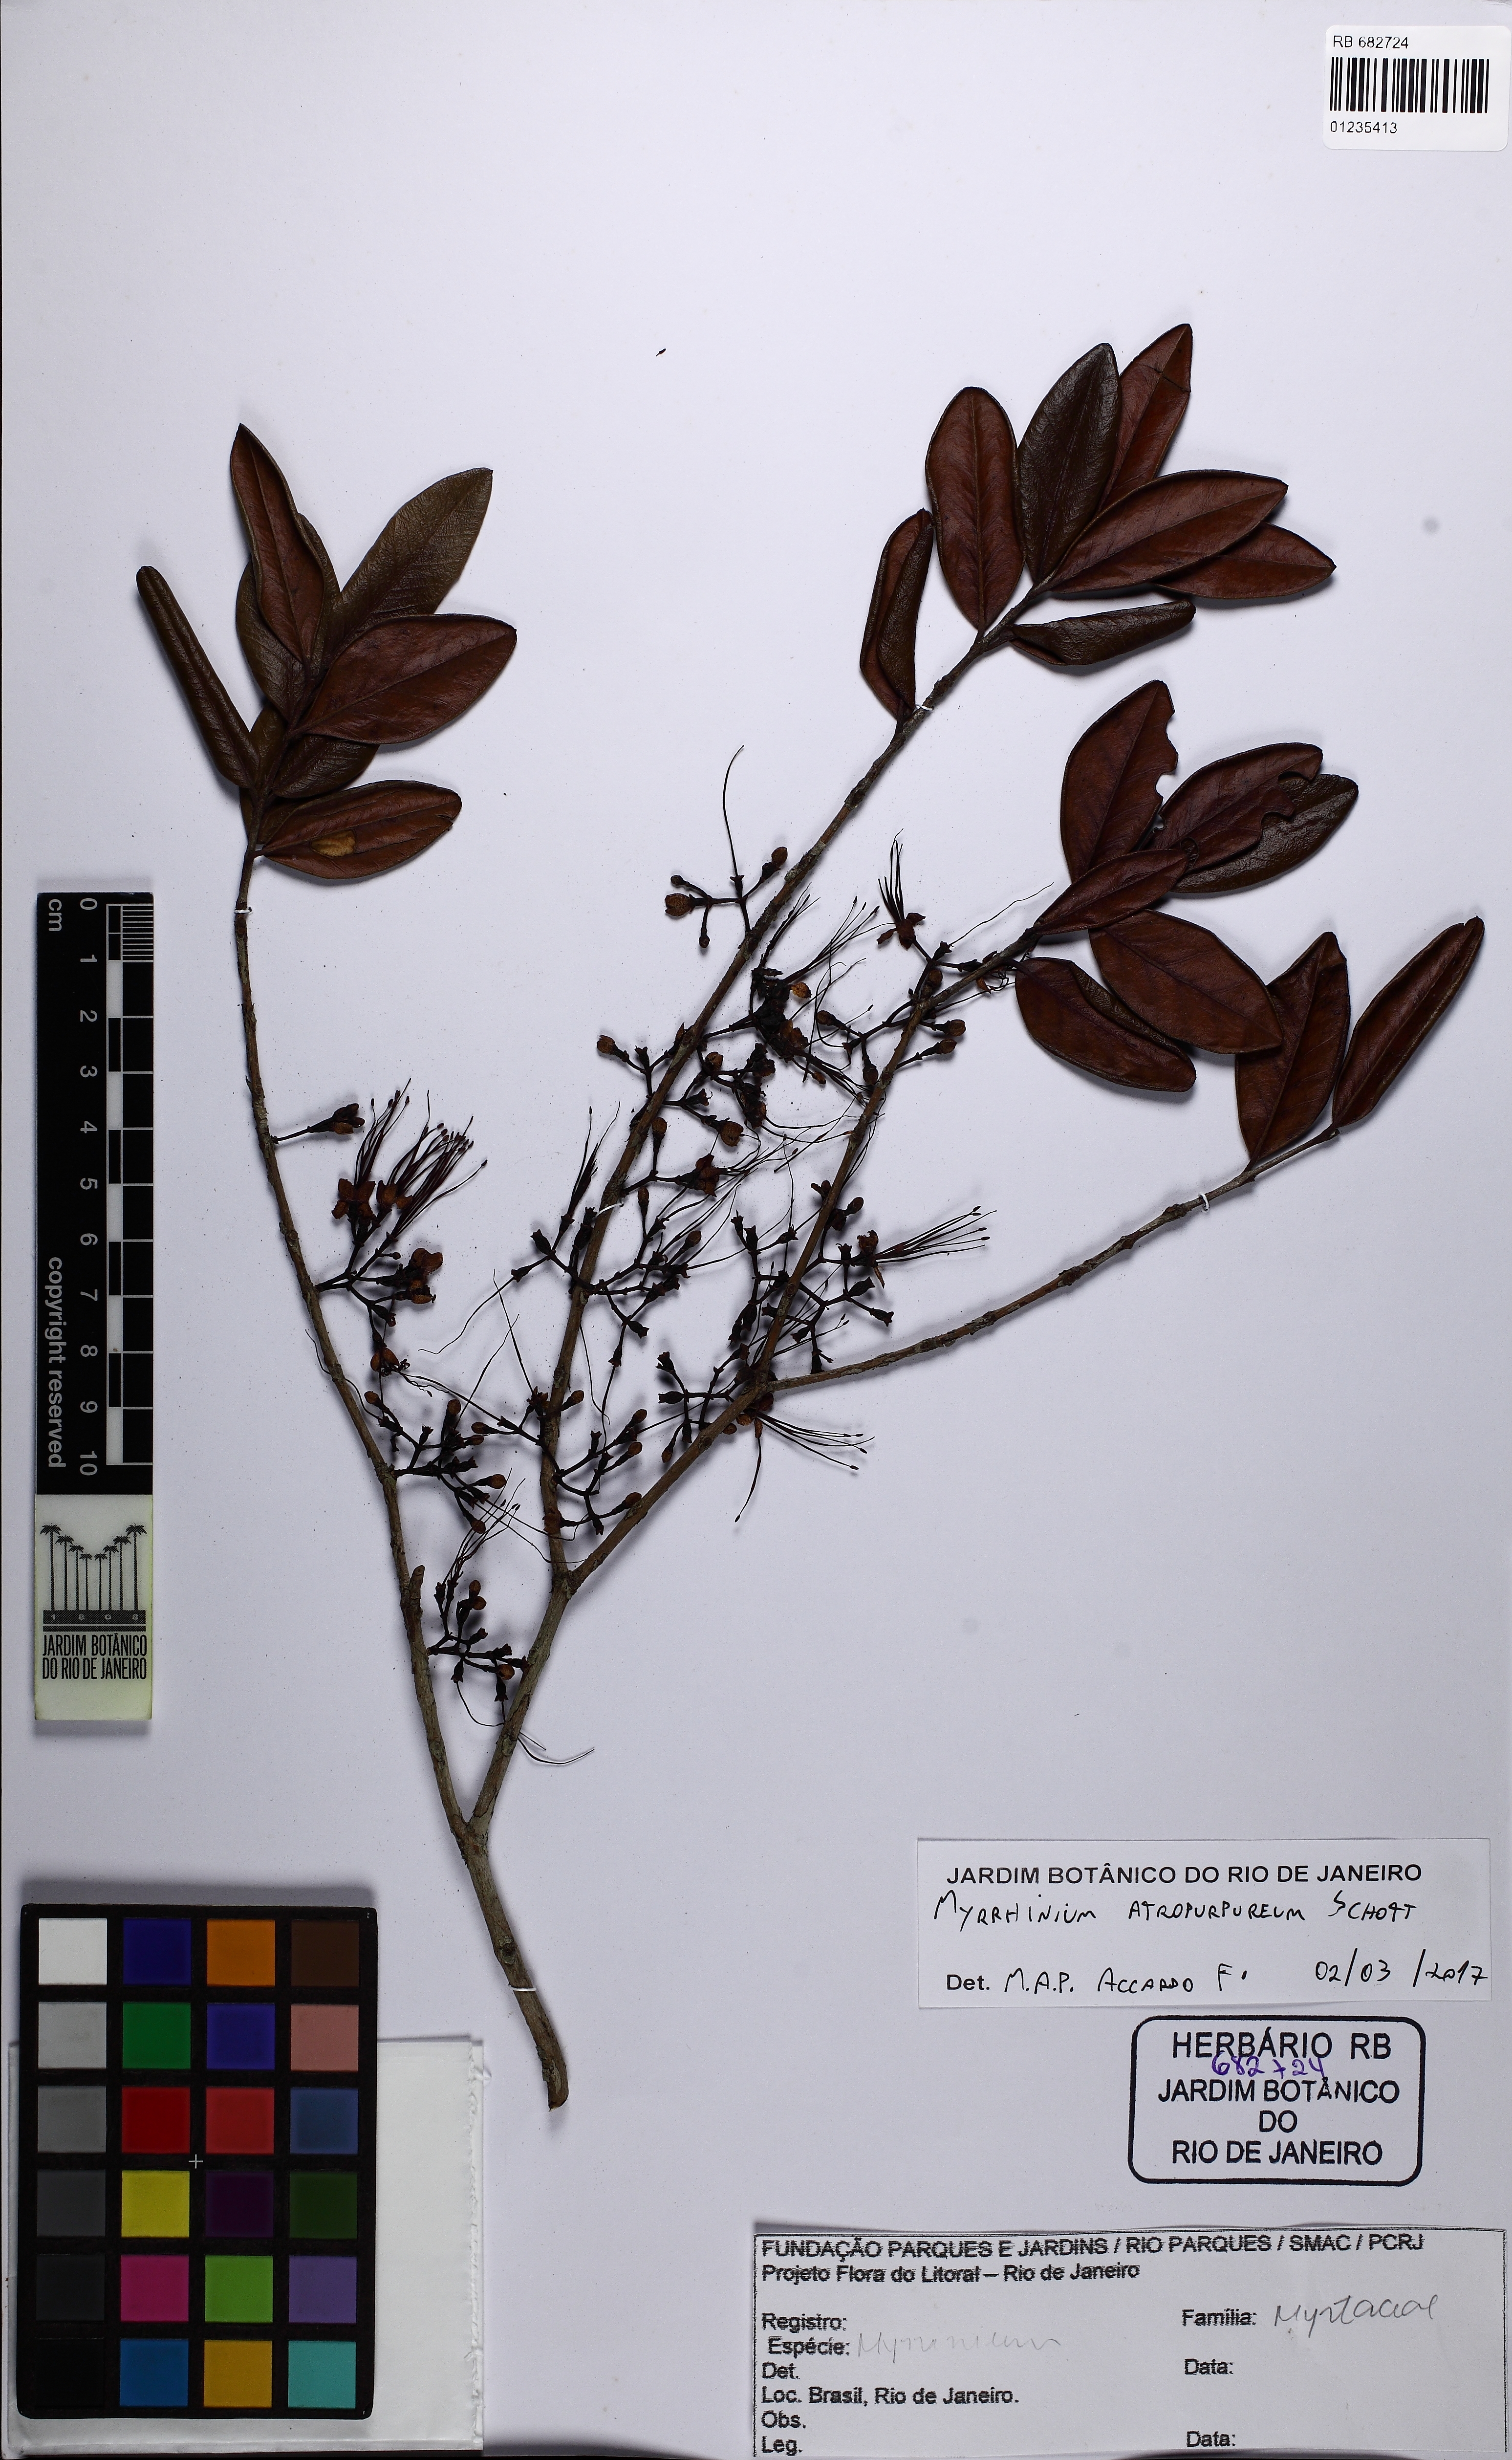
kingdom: Plantae
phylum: Tracheophyta
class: Magnoliopsida
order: Myrtales
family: Myrtaceae
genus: Myrrhinium
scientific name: Myrrhinium atropurpureum
